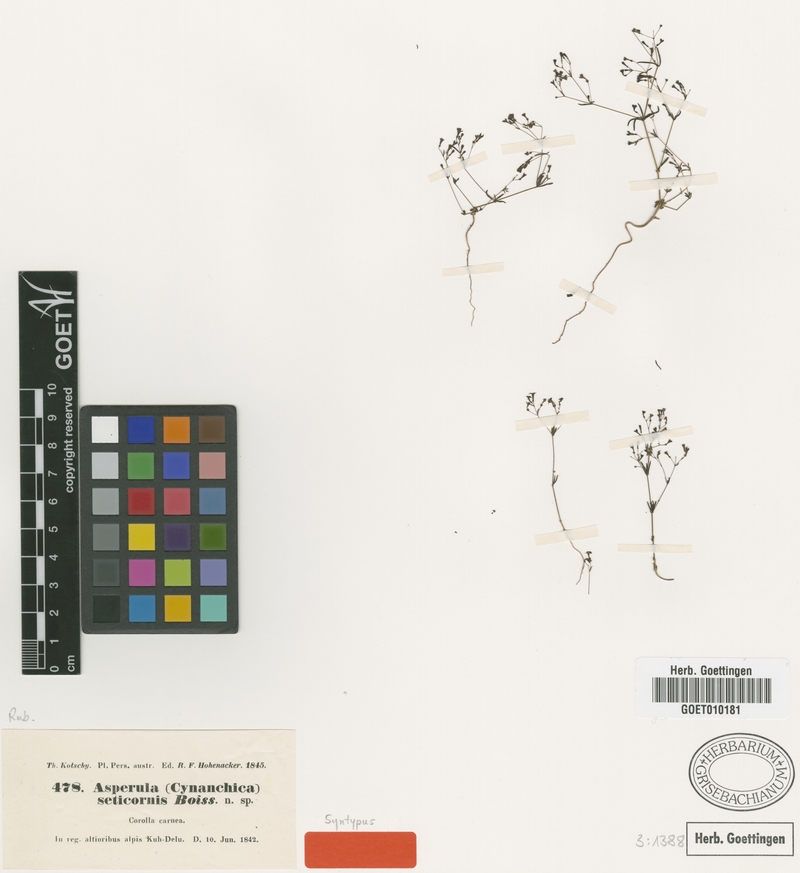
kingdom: Plantae
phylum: Tracheophyta
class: Magnoliopsida
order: Gentianales
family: Rubiaceae
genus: Asperula
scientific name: Asperula seticornis
